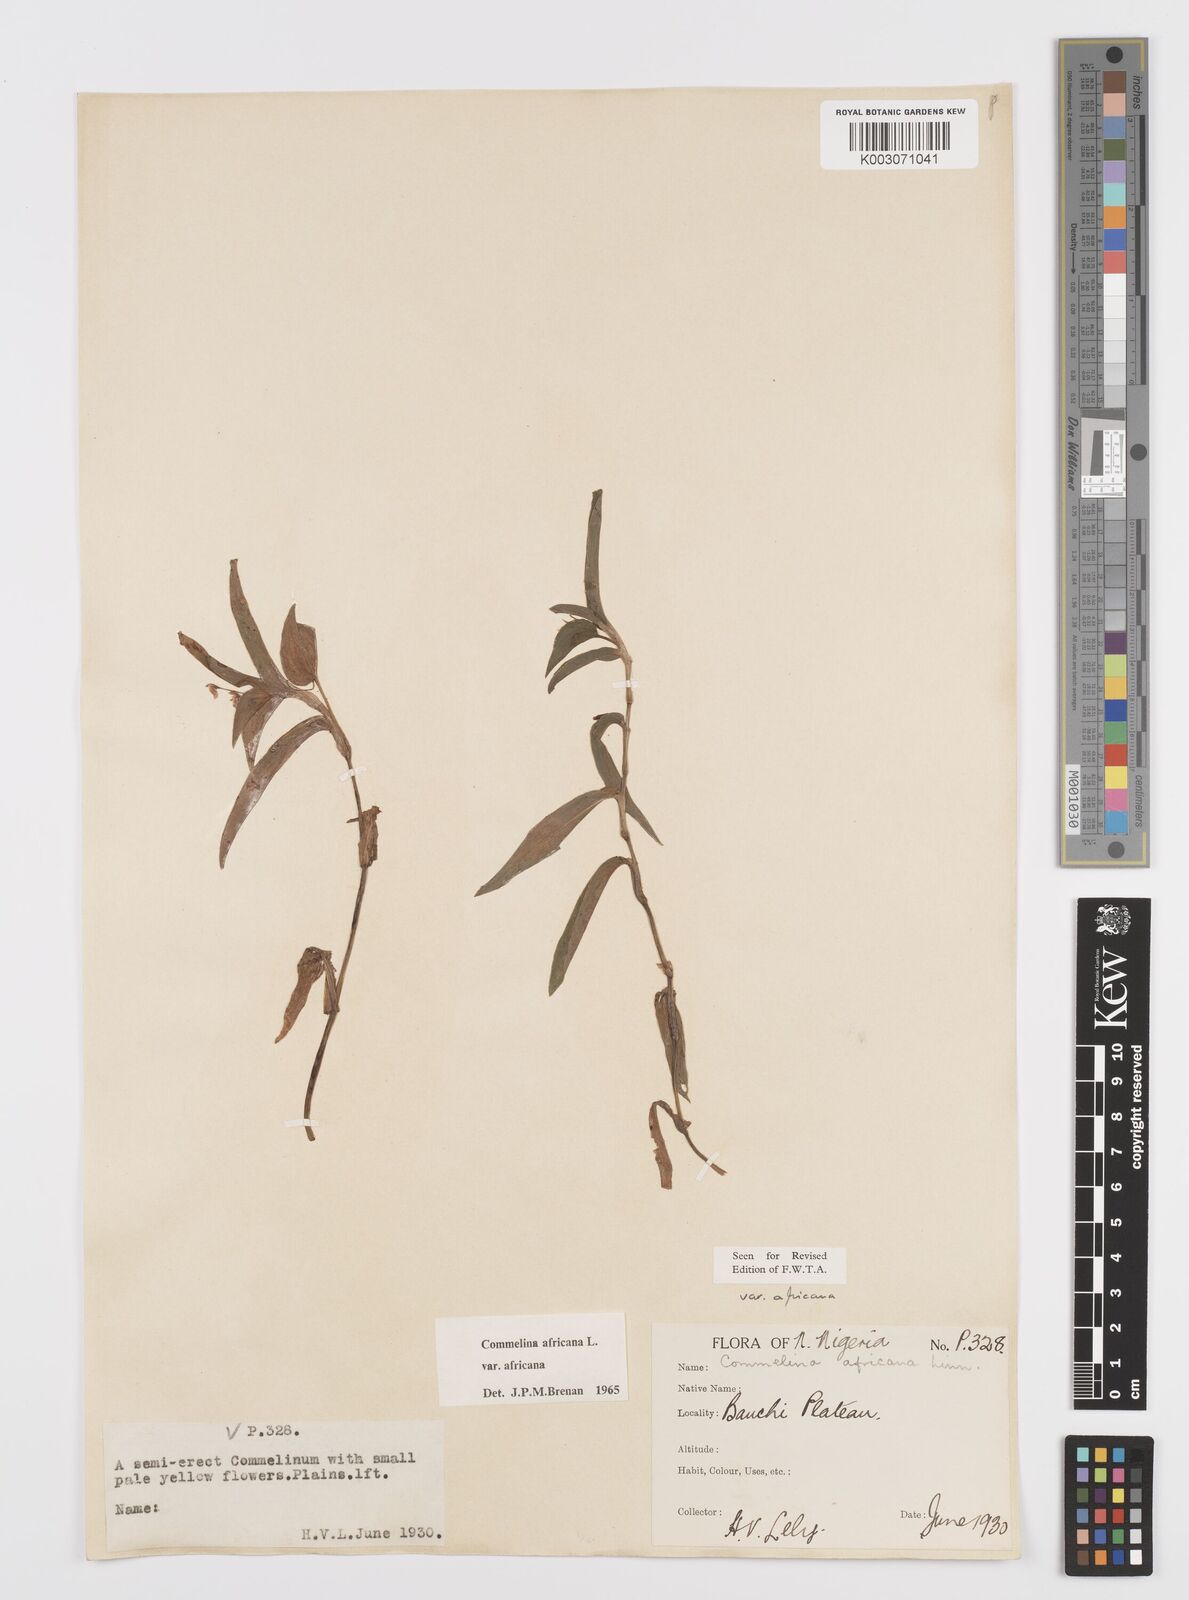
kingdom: Plantae
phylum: Tracheophyta
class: Liliopsida
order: Commelinales
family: Commelinaceae
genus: Commelina
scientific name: Commelina africana
